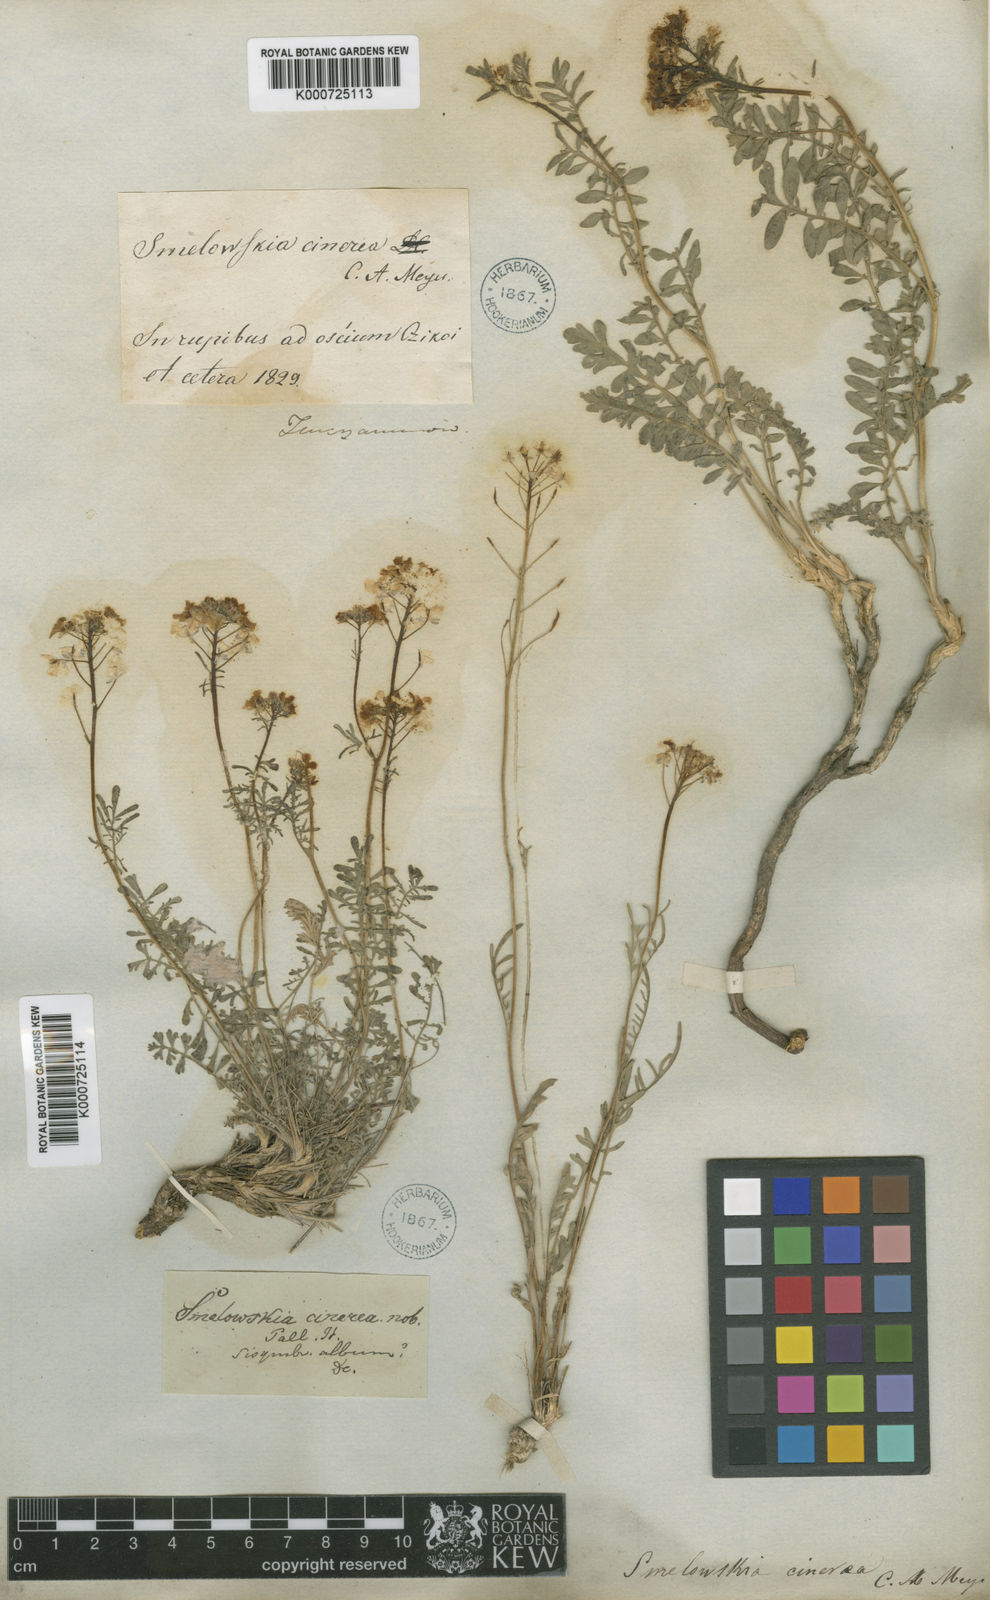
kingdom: Plantae
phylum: Tracheophyta
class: Magnoliopsida
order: Brassicales
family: Brassicaceae
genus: Smelowskia
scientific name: Smelowskia alba
